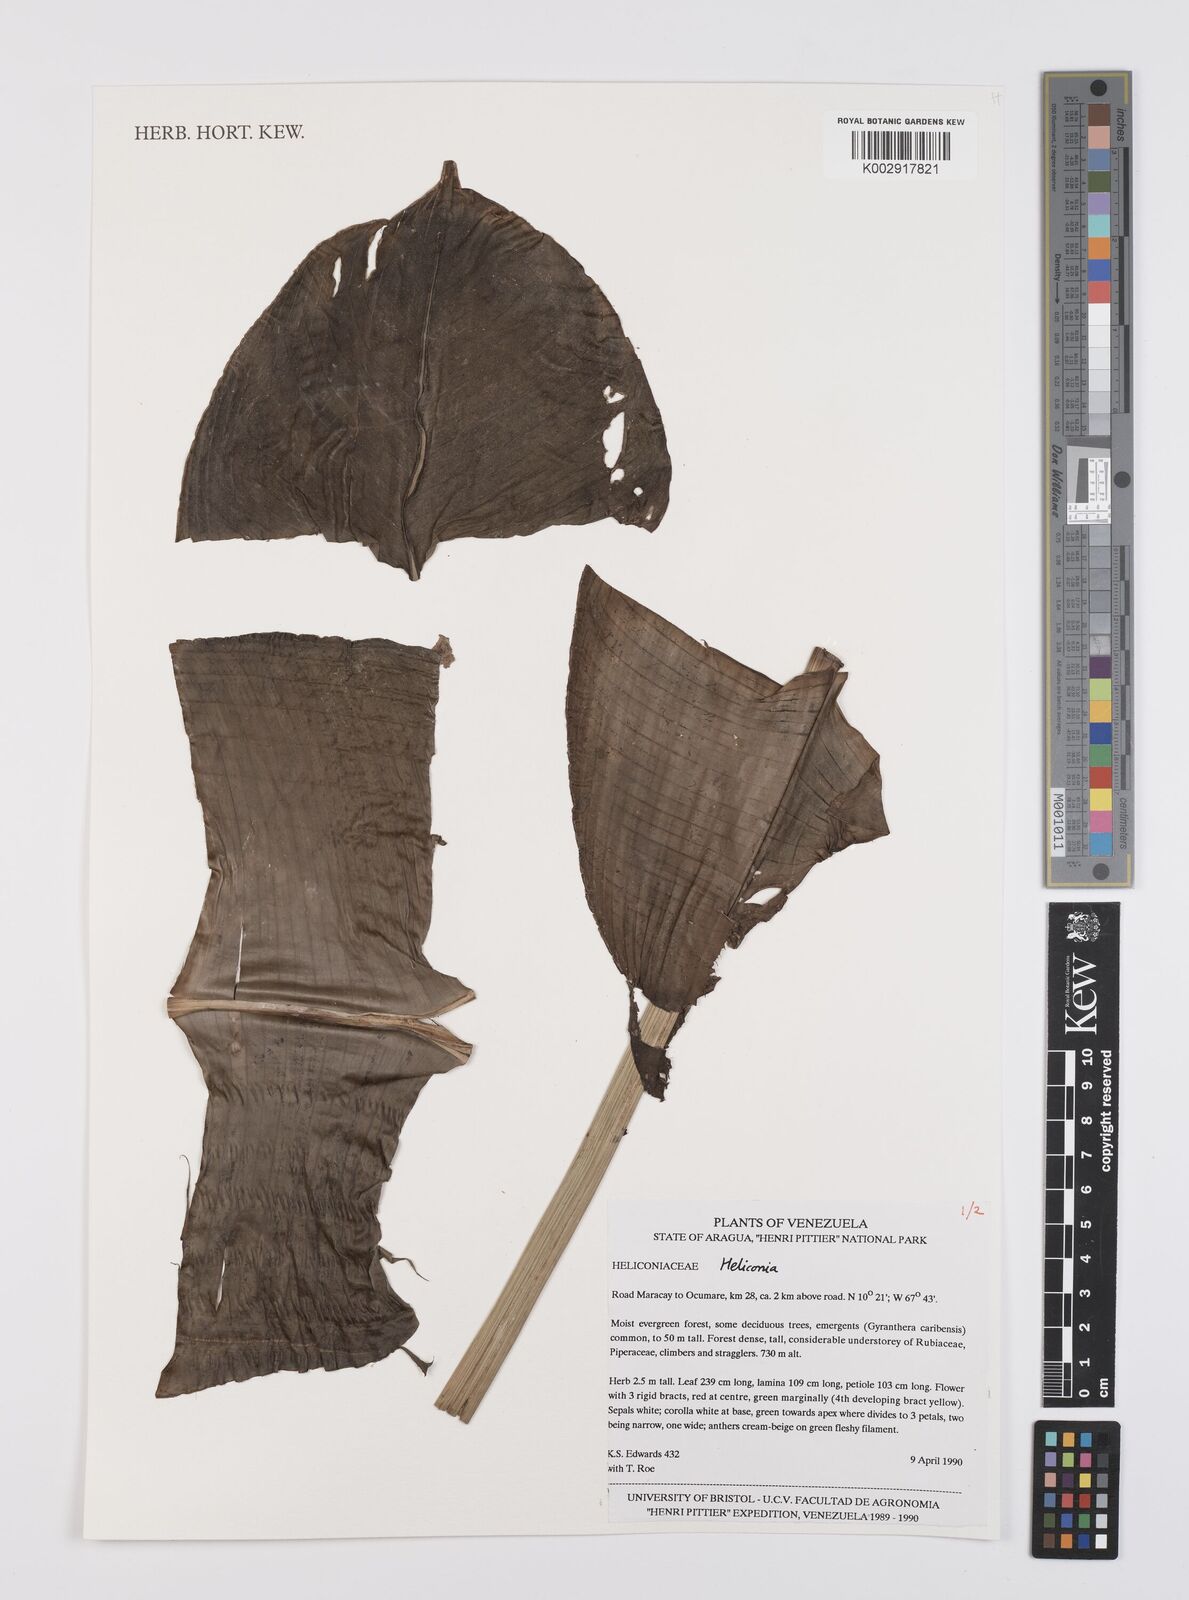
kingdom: Plantae
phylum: Tracheophyta
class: Liliopsida
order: Zingiberales
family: Heliconiaceae
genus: Heliconia
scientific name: Heliconia
